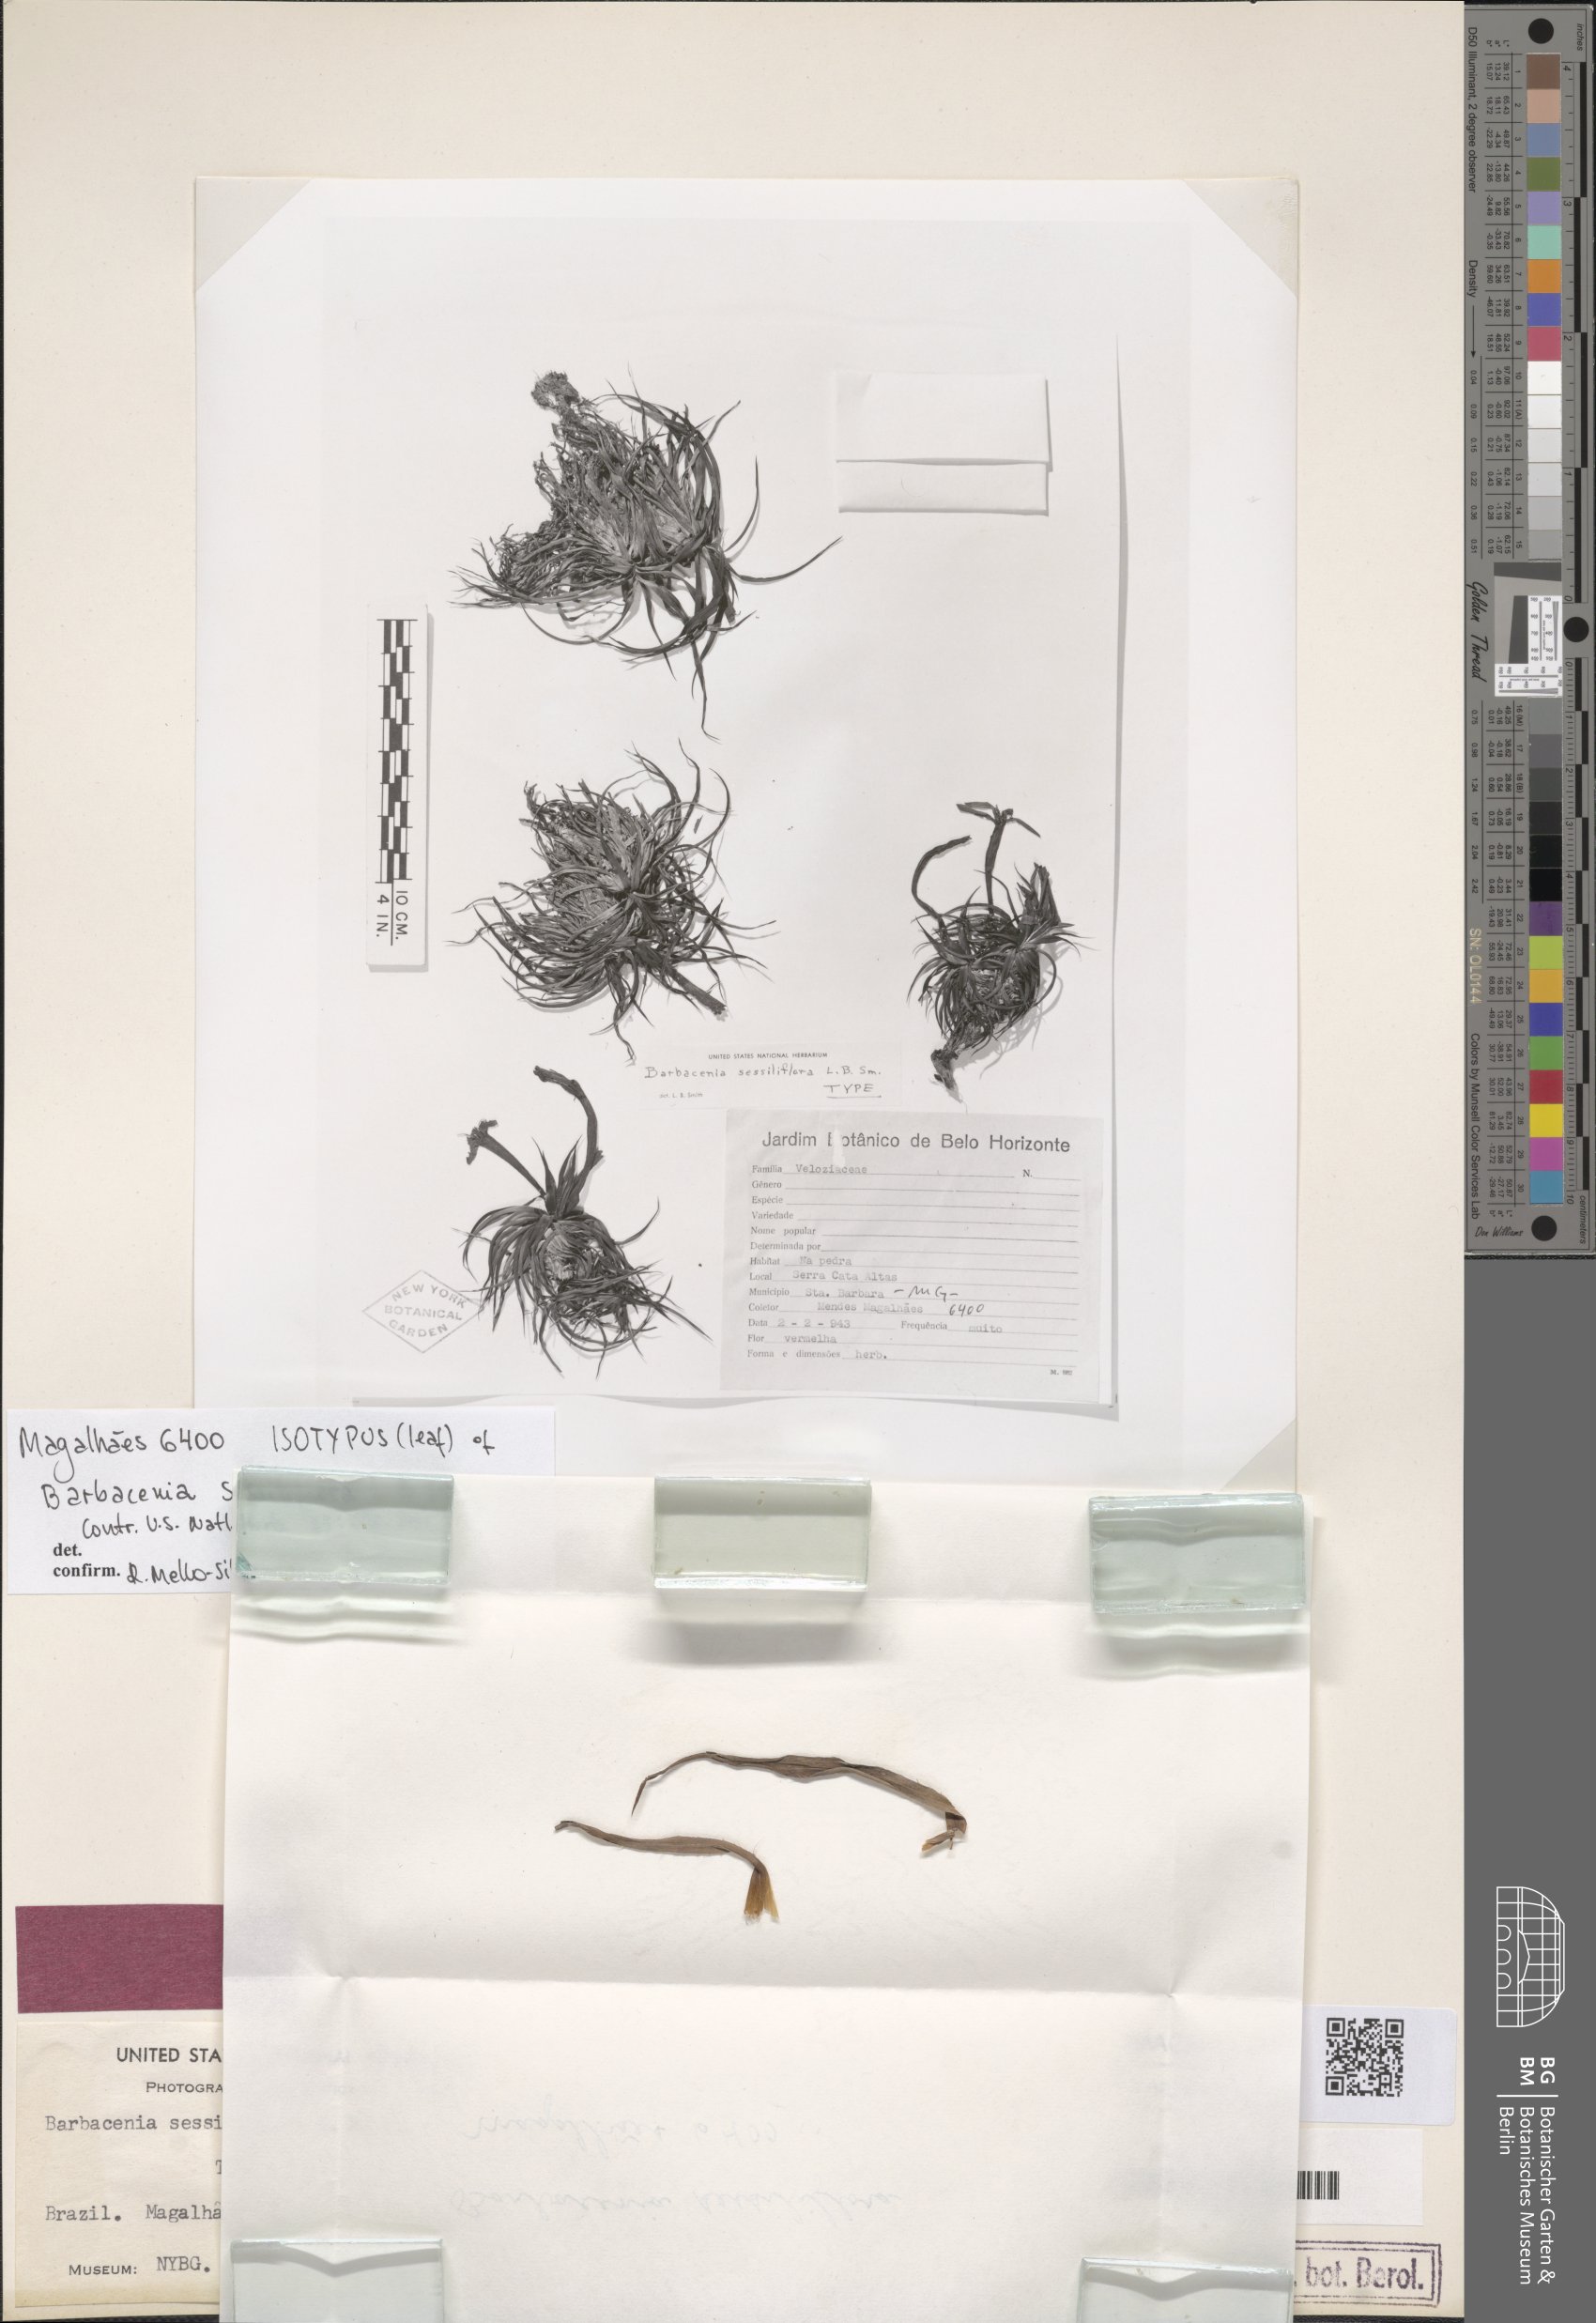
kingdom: Plantae
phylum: Tracheophyta
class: Liliopsida
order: Pandanales
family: Velloziaceae
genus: Barbacenia
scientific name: Barbacenia sessiliflora
